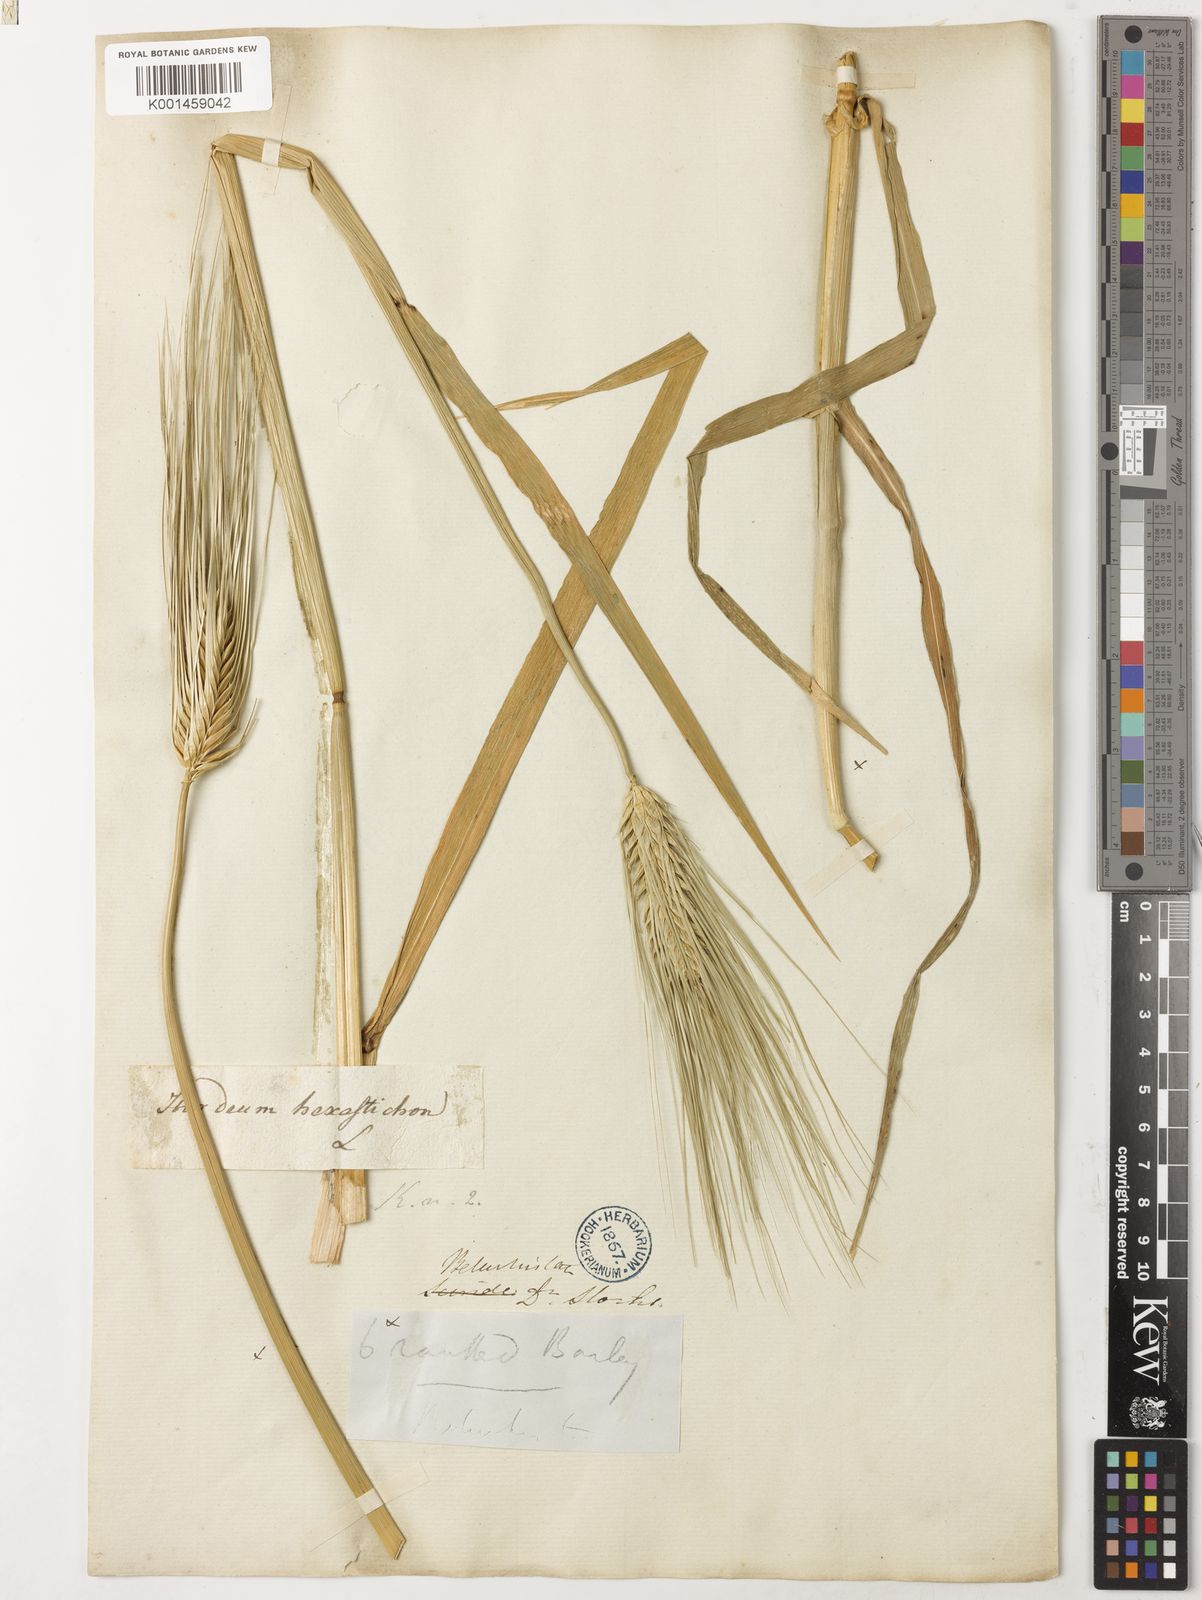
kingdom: Plantae
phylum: Tracheophyta
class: Liliopsida
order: Poales
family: Poaceae
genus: Hordeum
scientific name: Hordeum vulgare
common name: Common barley
